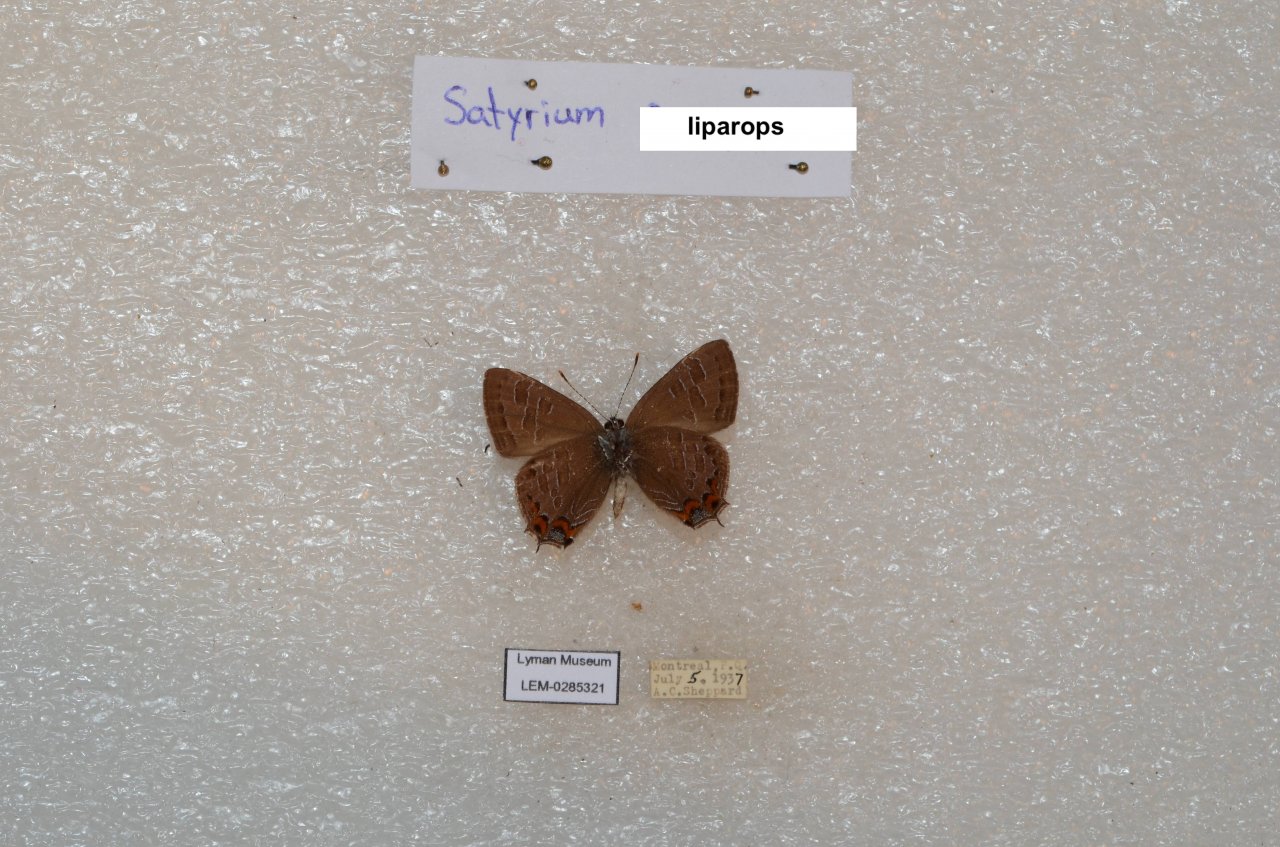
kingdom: Animalia
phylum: Arthropoda
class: Insecta
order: Lepidoptera
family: Lycaenidae
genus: Satyrium
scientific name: Satyrium liparops
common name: Striped Hairstreak
